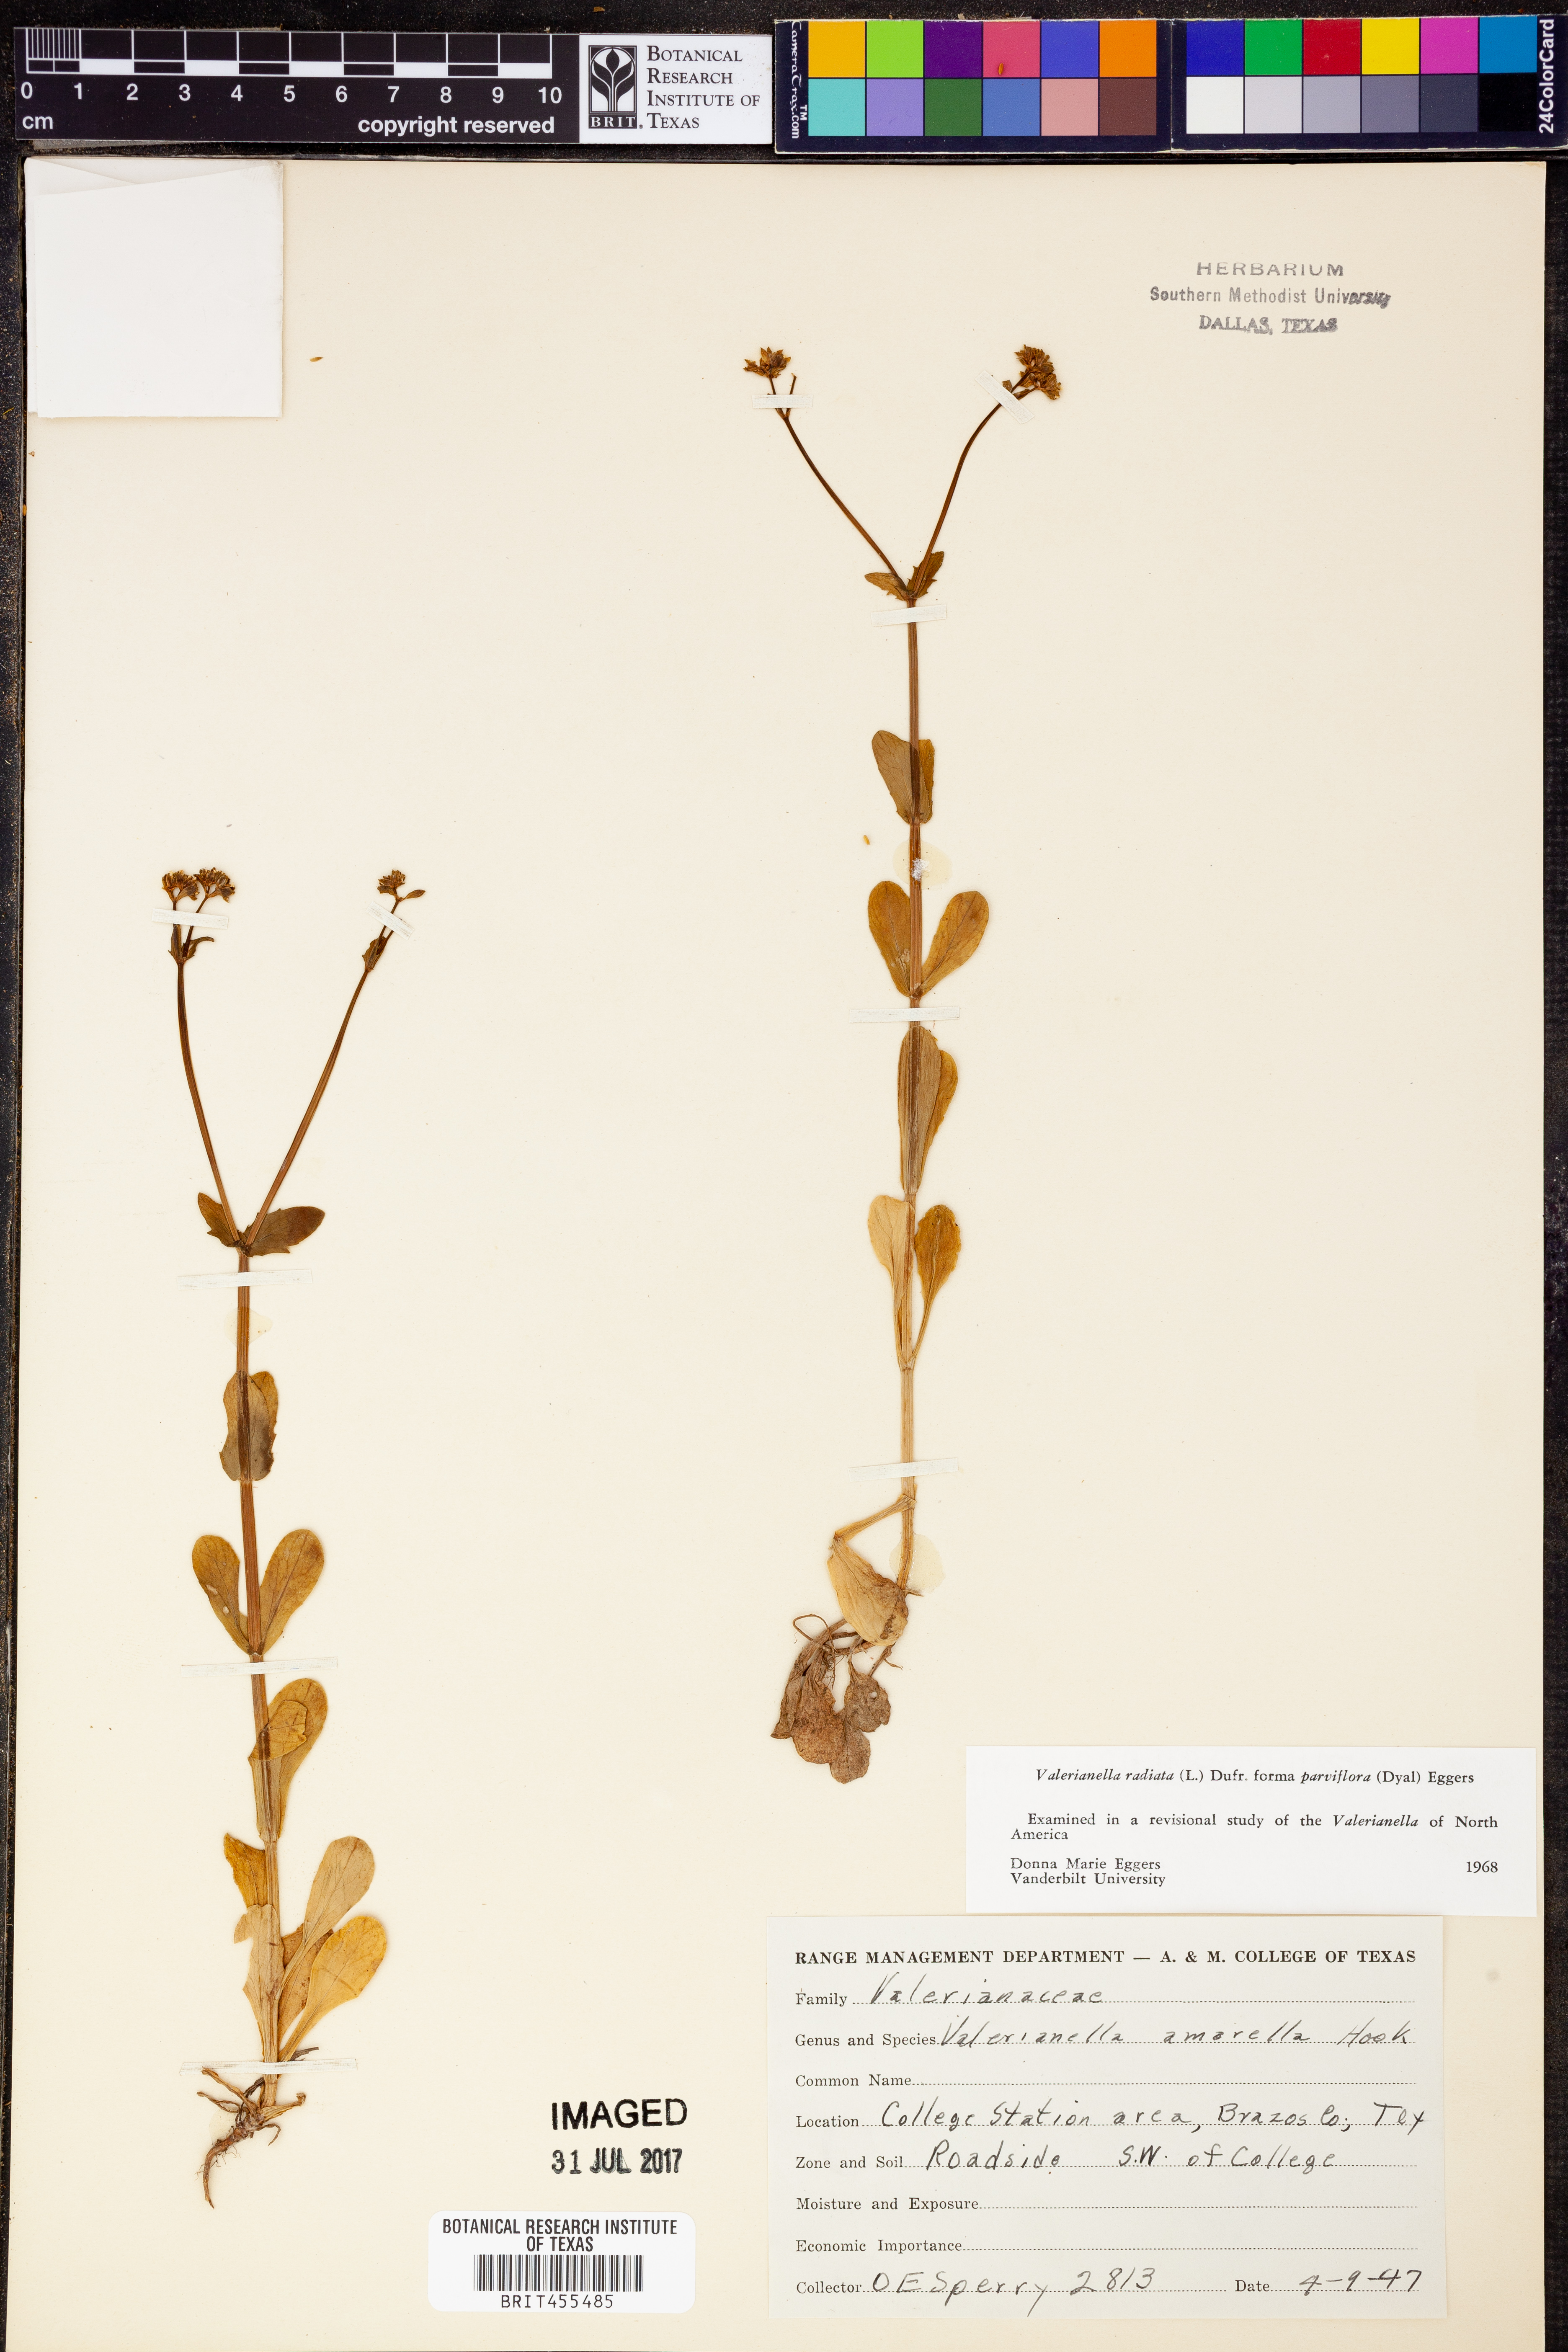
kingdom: Plantae
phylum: Tracheophyta
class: Magnoliopsida
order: Dipsacales
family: Caprifoliaceae
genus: Valerianella
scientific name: Valerianella radiata
